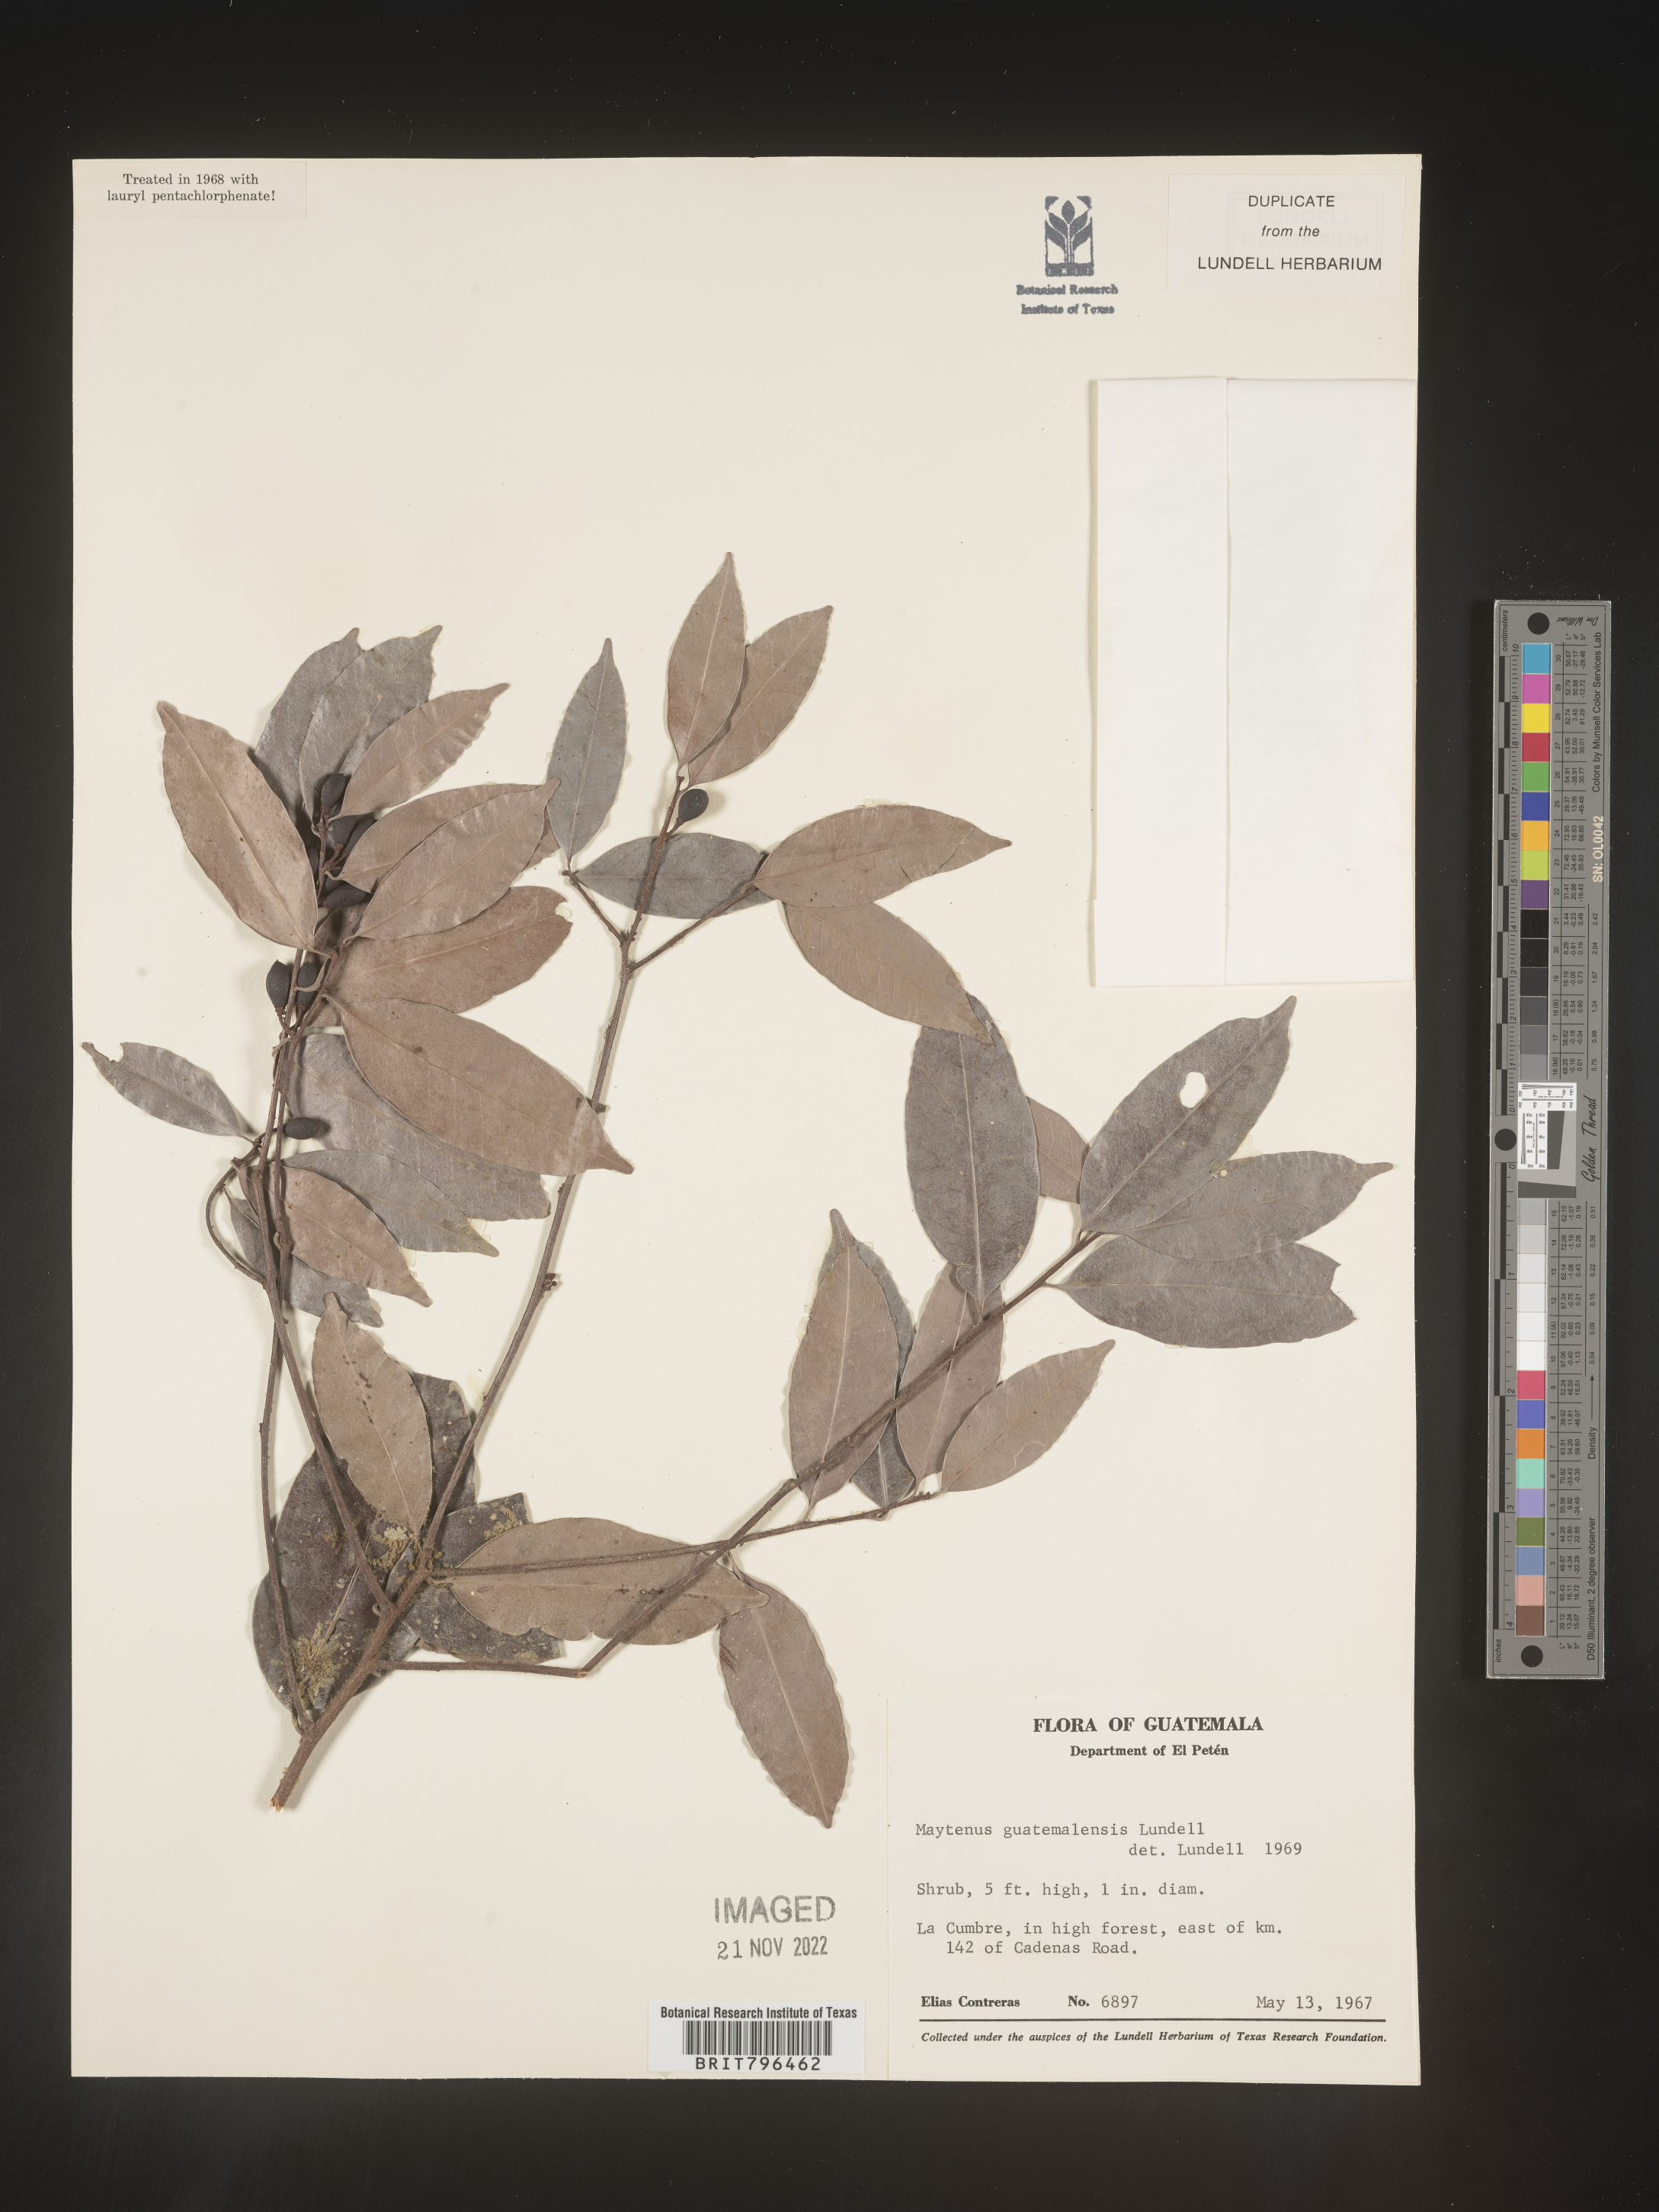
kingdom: Plantae
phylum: Tracheophyta
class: Magnoliopsida
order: Celastrales
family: Celastraceae
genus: Maytenus
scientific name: Maytenus
